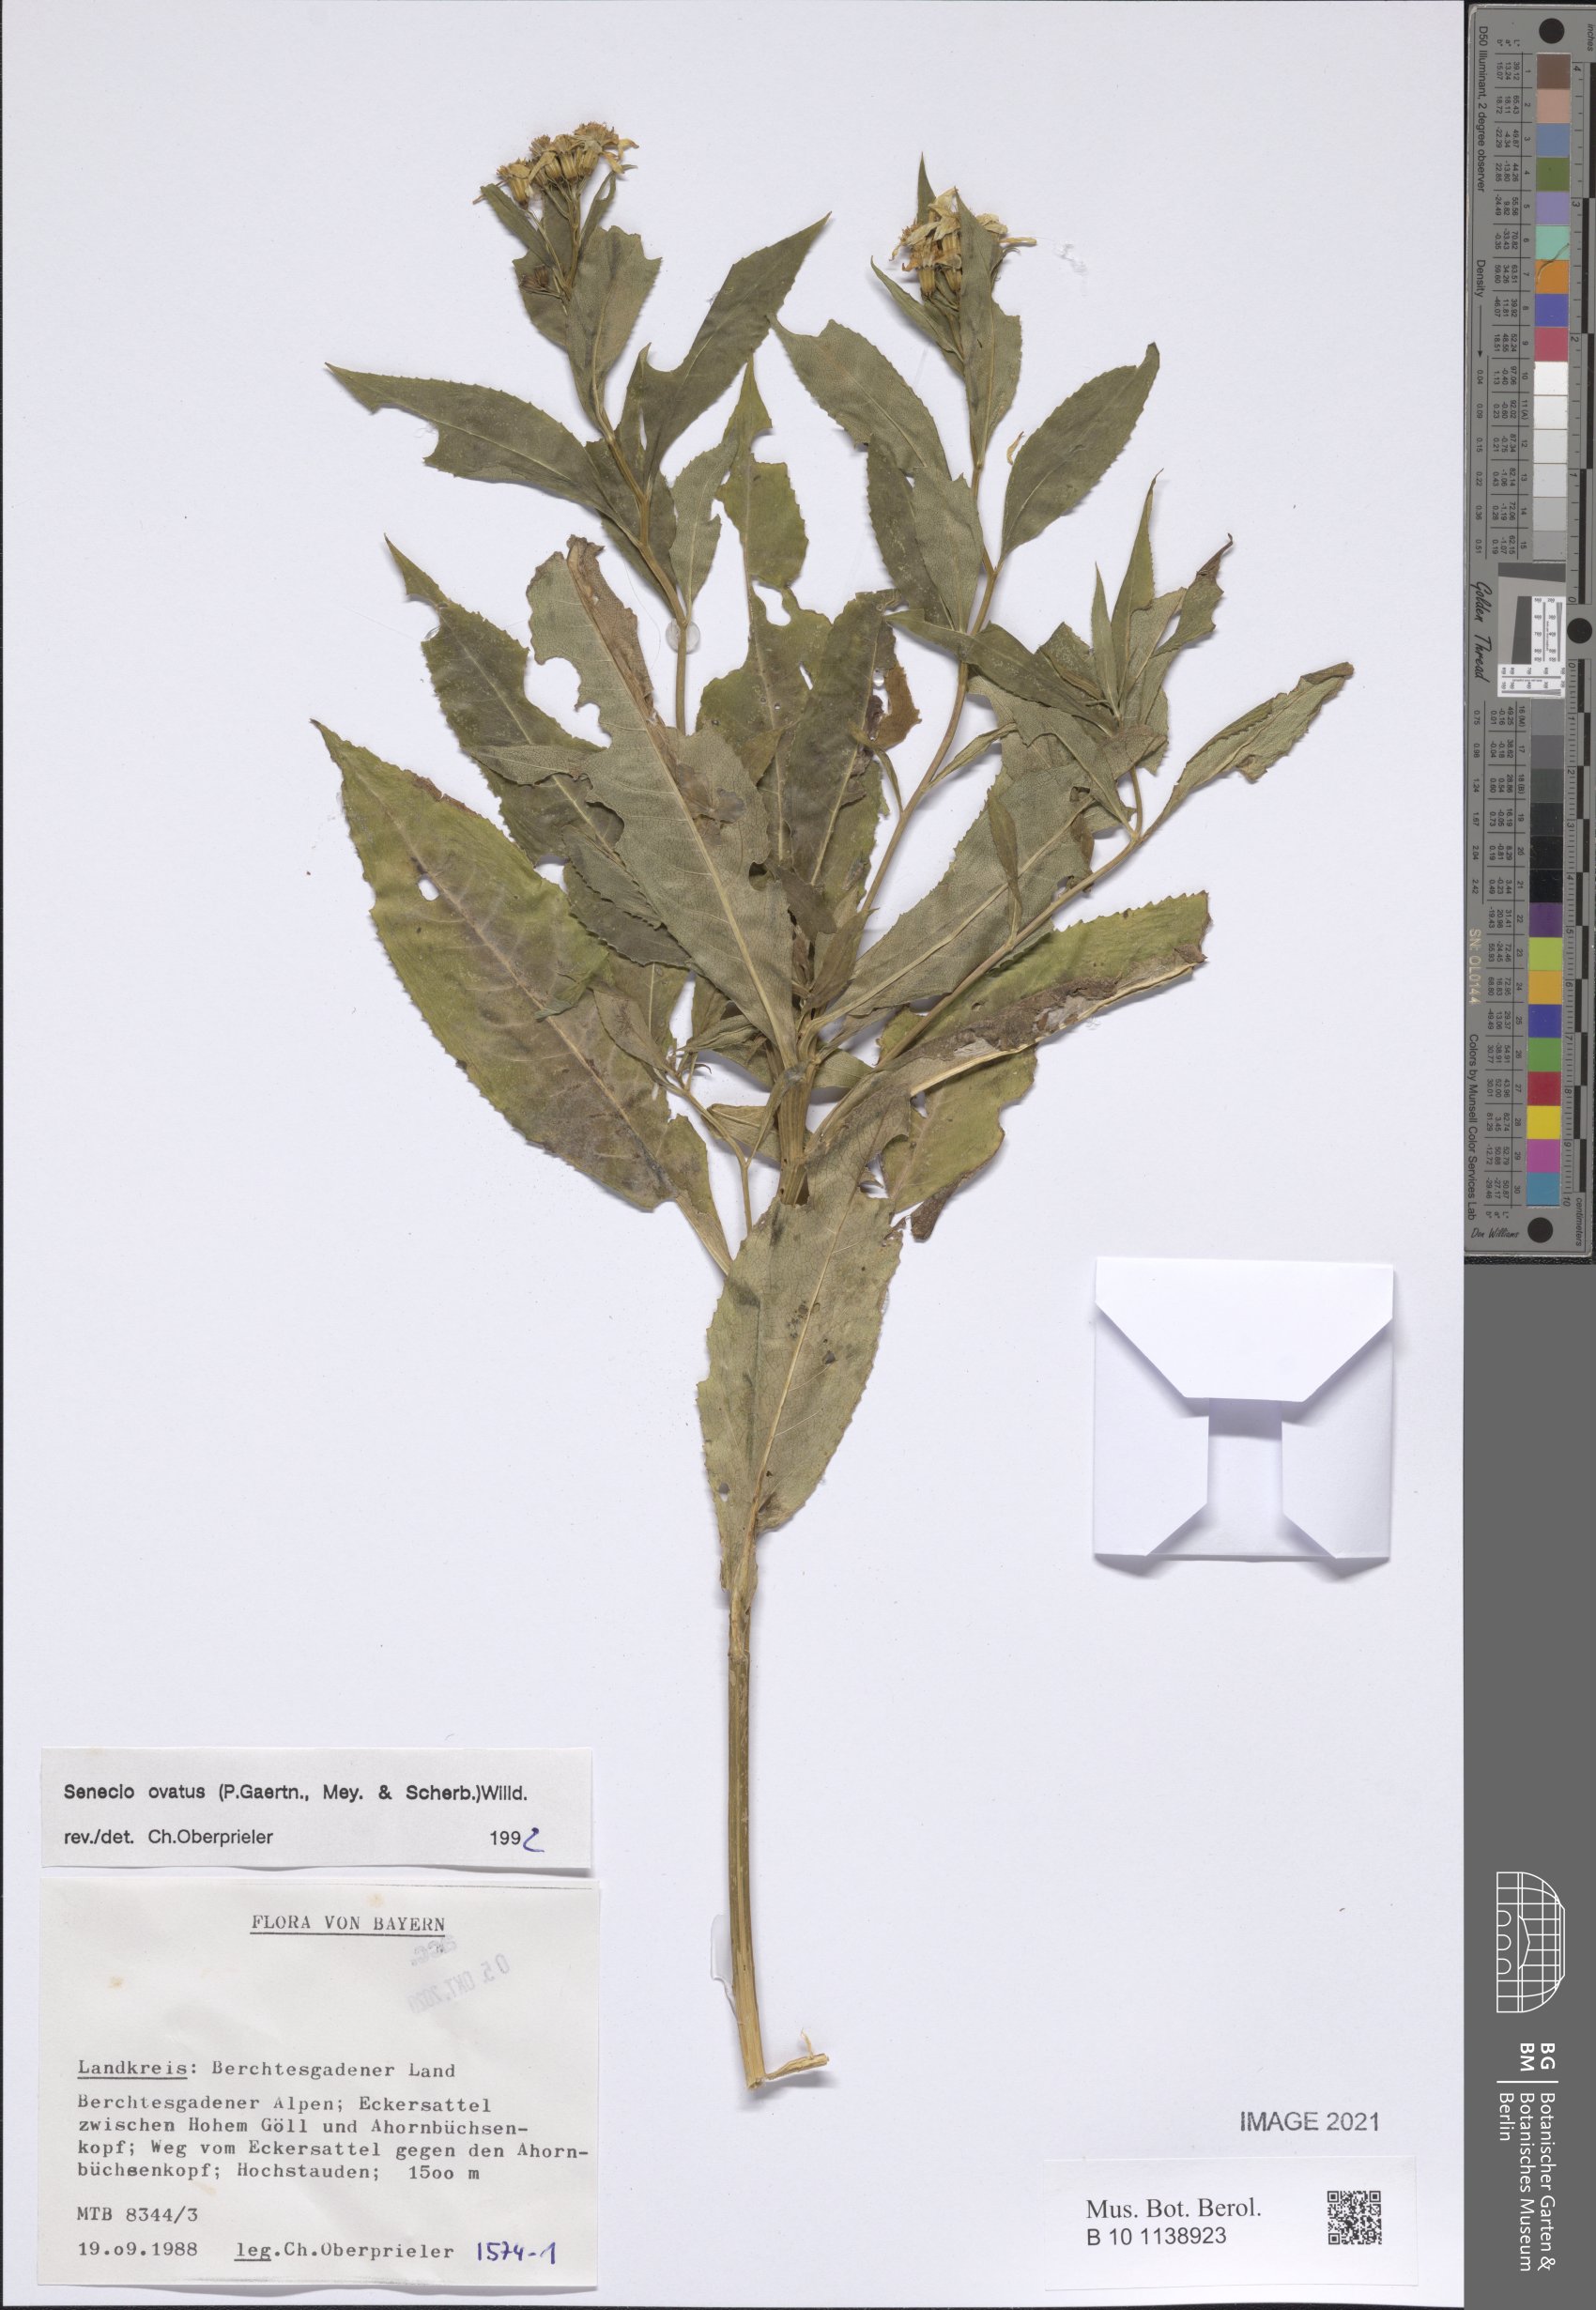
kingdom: Plantae
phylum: Tracheophyta
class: Magnoliopsida
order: Asterales
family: Asteraceae
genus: Senecio
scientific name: Senecio ovatus
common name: Wood ragwort
